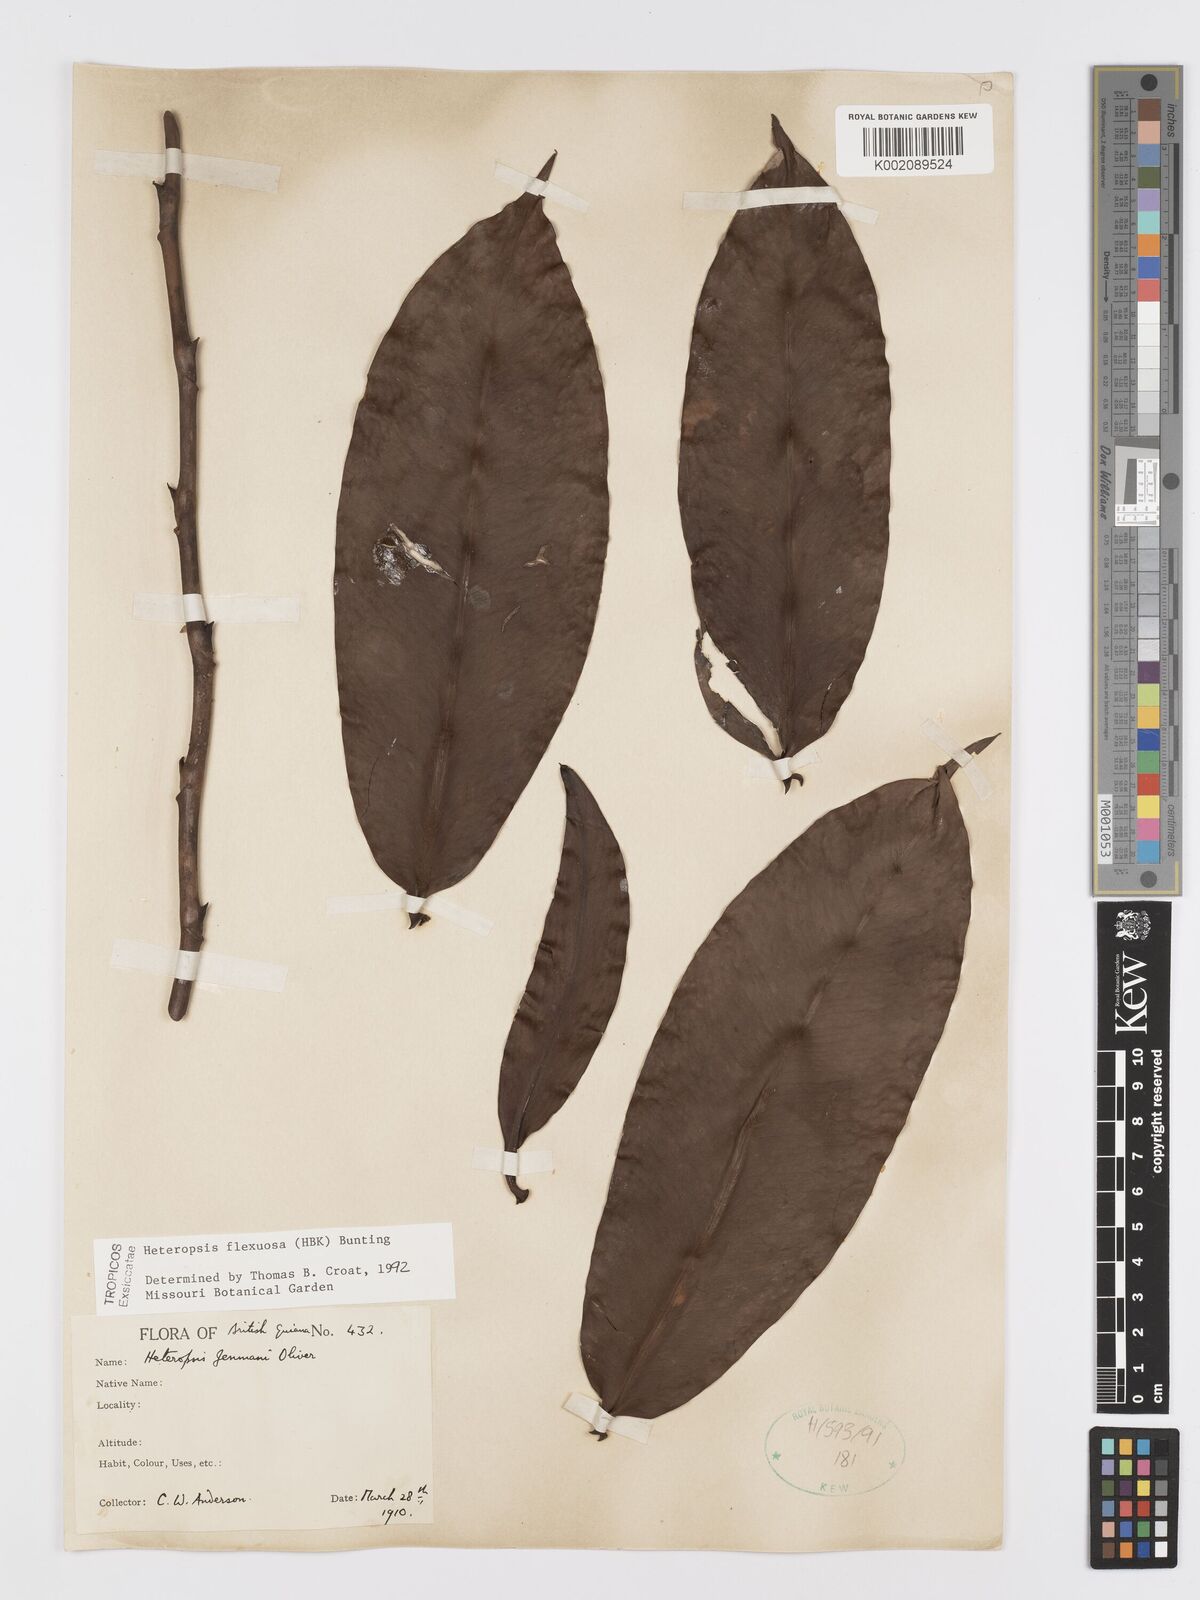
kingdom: Plantae
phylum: Tracheophyta
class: Liliopsida
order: Alismatales
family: Araceae
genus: Heteropsis
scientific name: Heteropsis flexuosa
